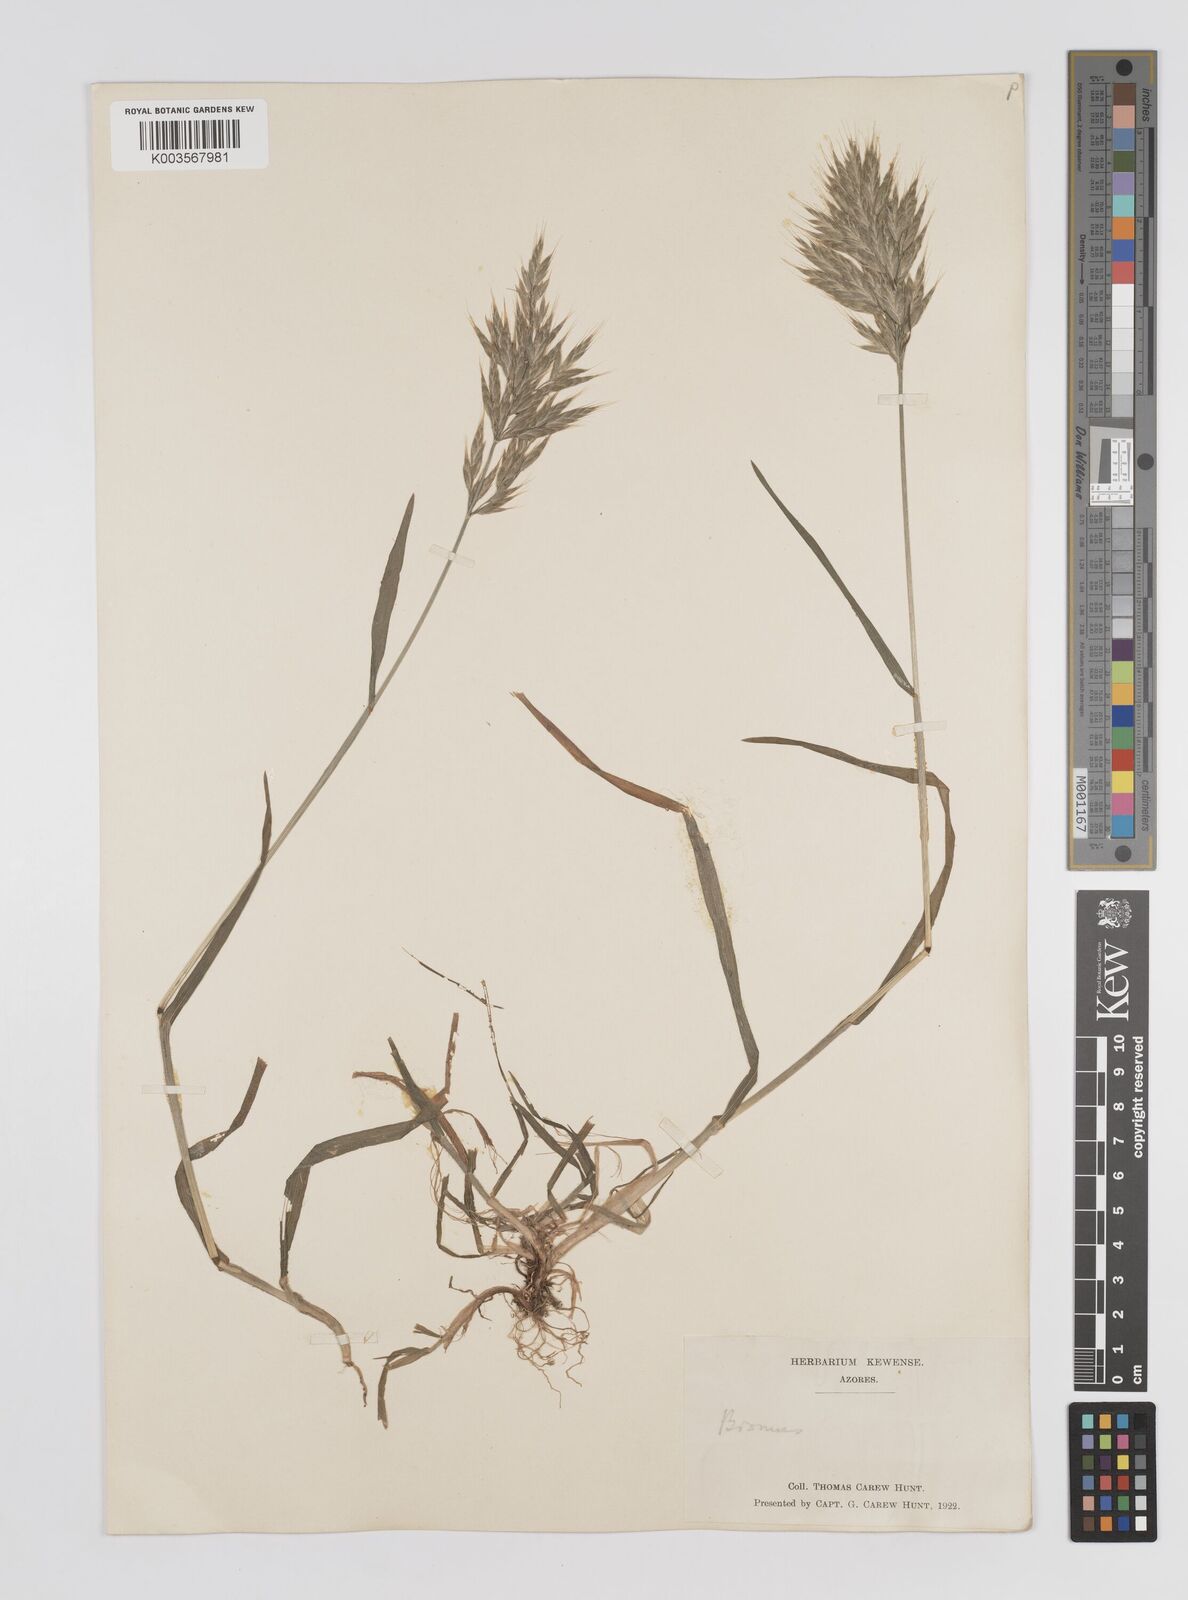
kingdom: Plantae
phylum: Tracheophyta
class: Liliopsida
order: Poales
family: Poaceae
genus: Bromus
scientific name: Bromus
